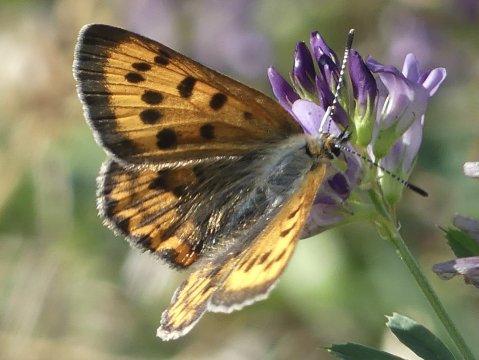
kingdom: Animalia
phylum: Arthropoda
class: Insecta
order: Lepidoptera
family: Sesiidae
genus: Sesia
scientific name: Sesia Lycaena helloides
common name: Purplish Copper
